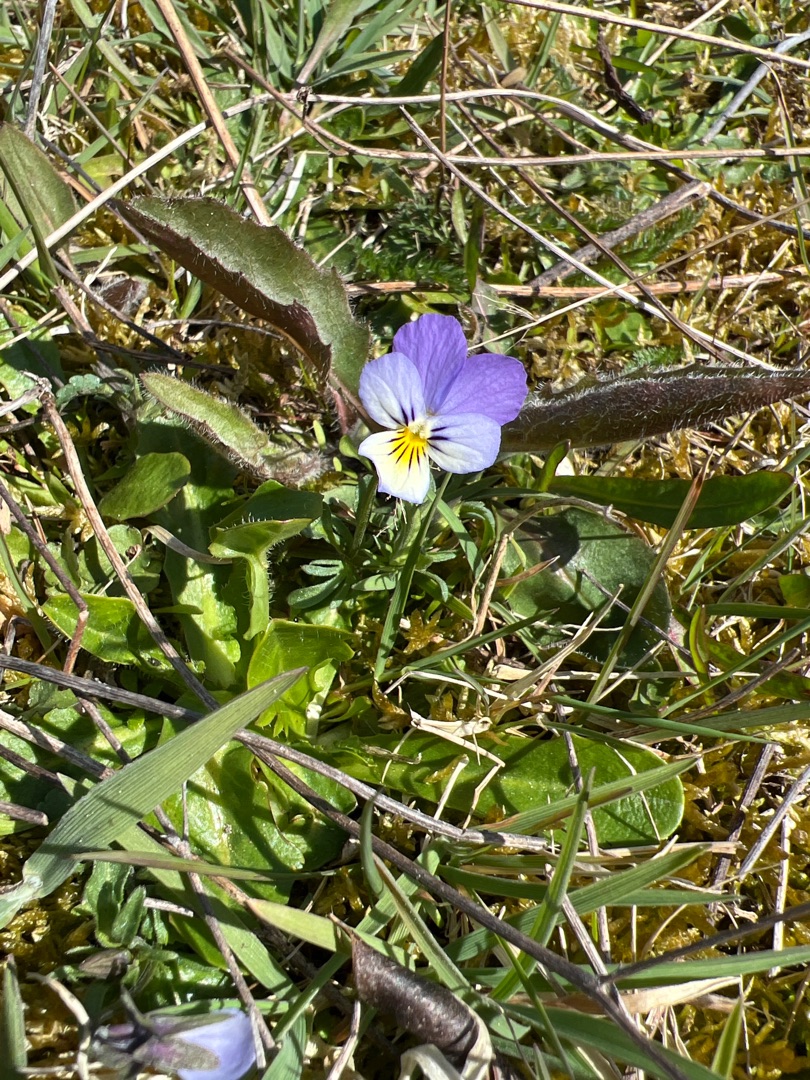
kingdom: Plantae
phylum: Tracheophyta
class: Magnoliopsida
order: Malpighiales
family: Violaceae
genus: Viola
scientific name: Viola tricolor
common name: Stedmoderblomst
